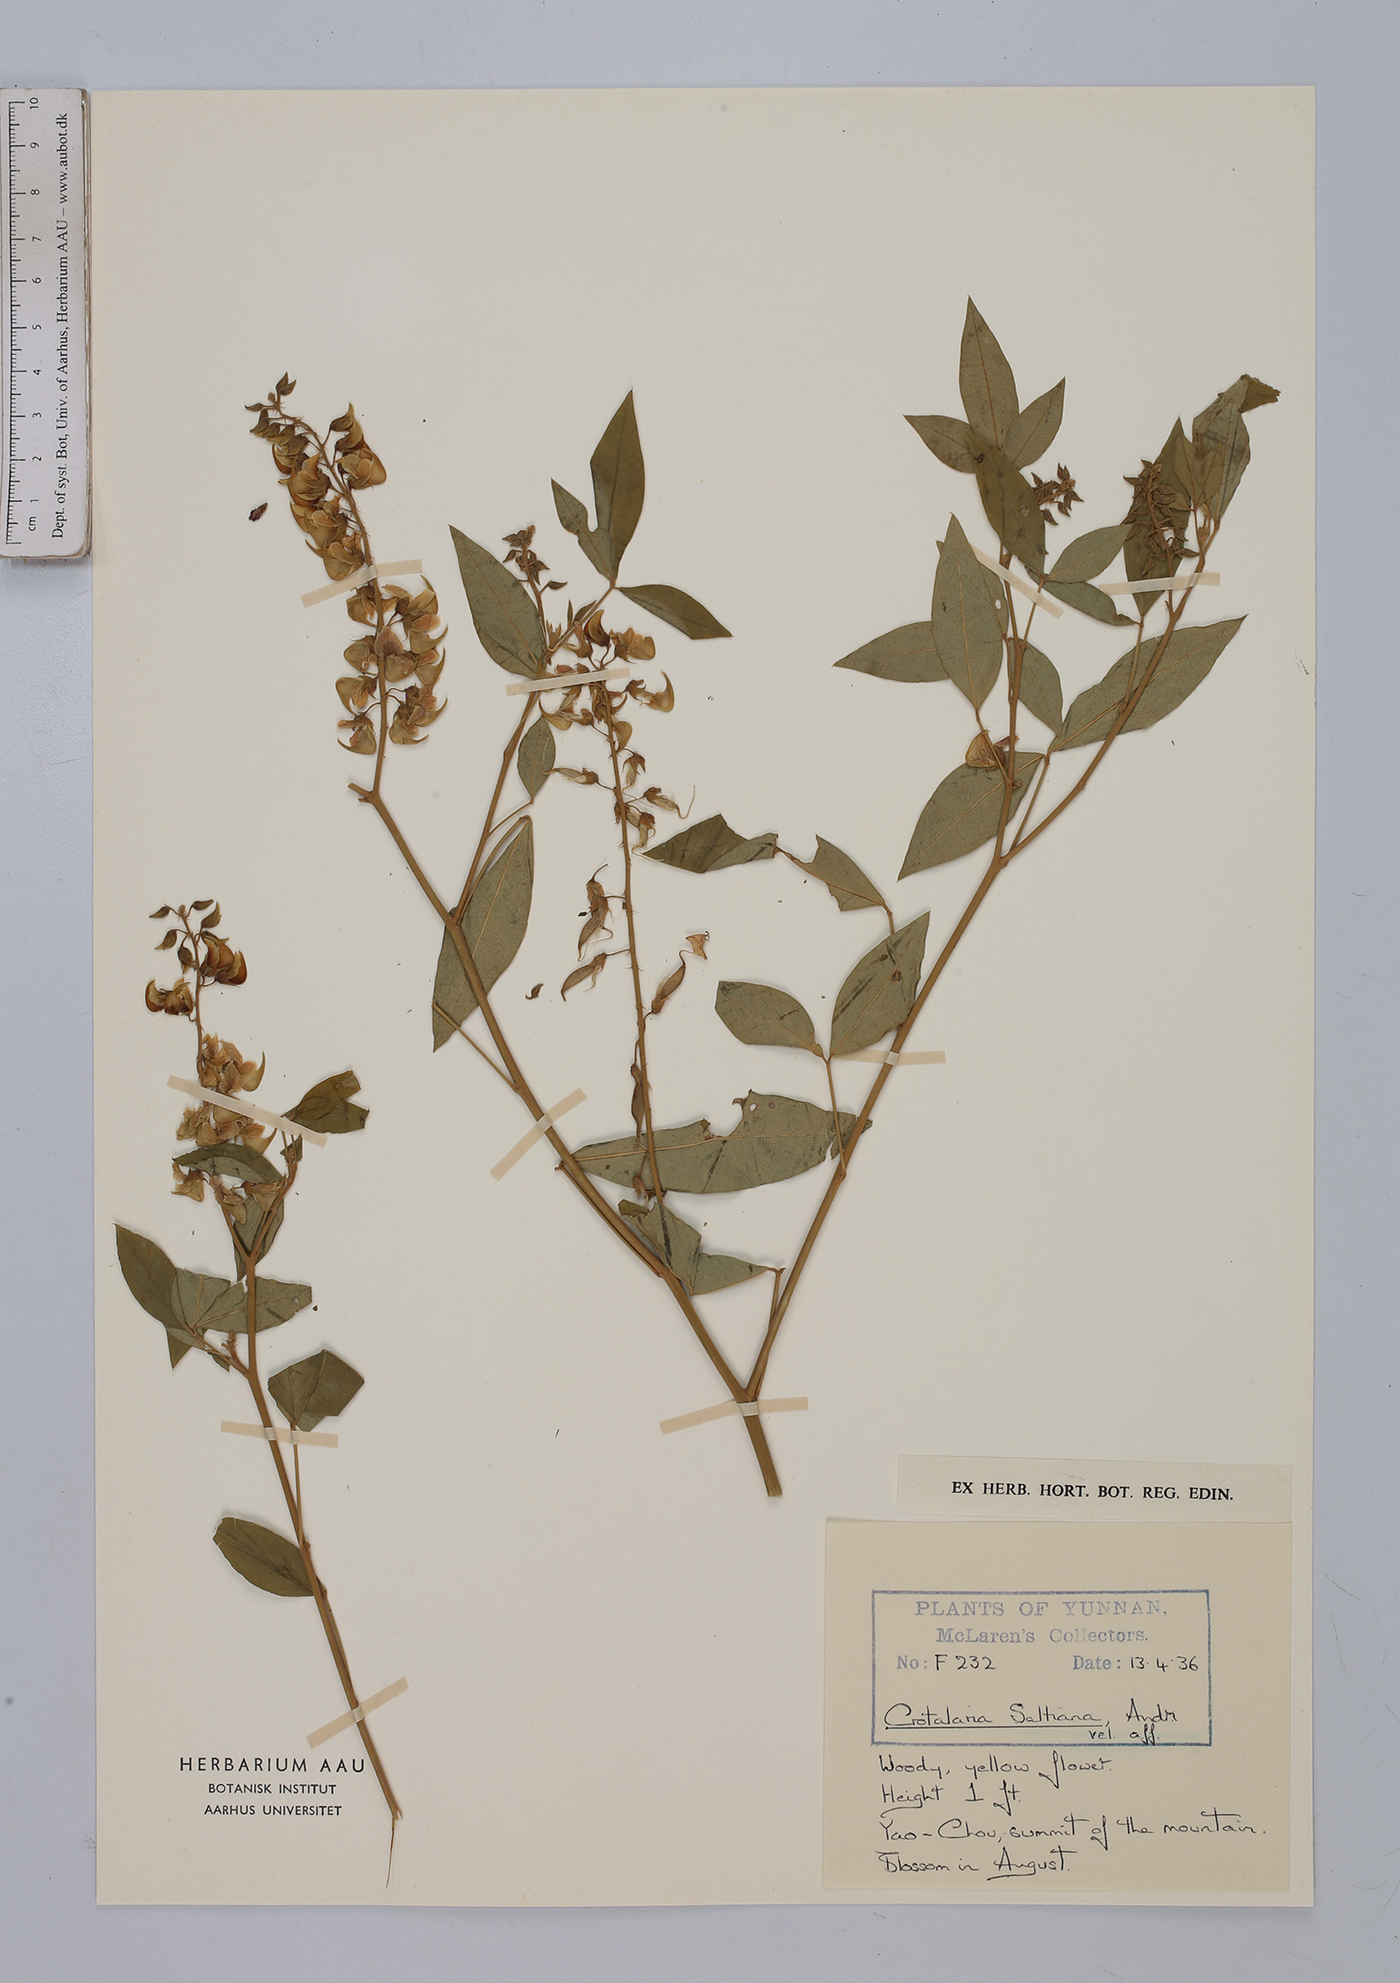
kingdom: Plantae
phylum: Tracheophyta
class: Magnoliopsida
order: Fabales
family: Fabaceae
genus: Crotalaria
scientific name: Crotalaria saltiana
